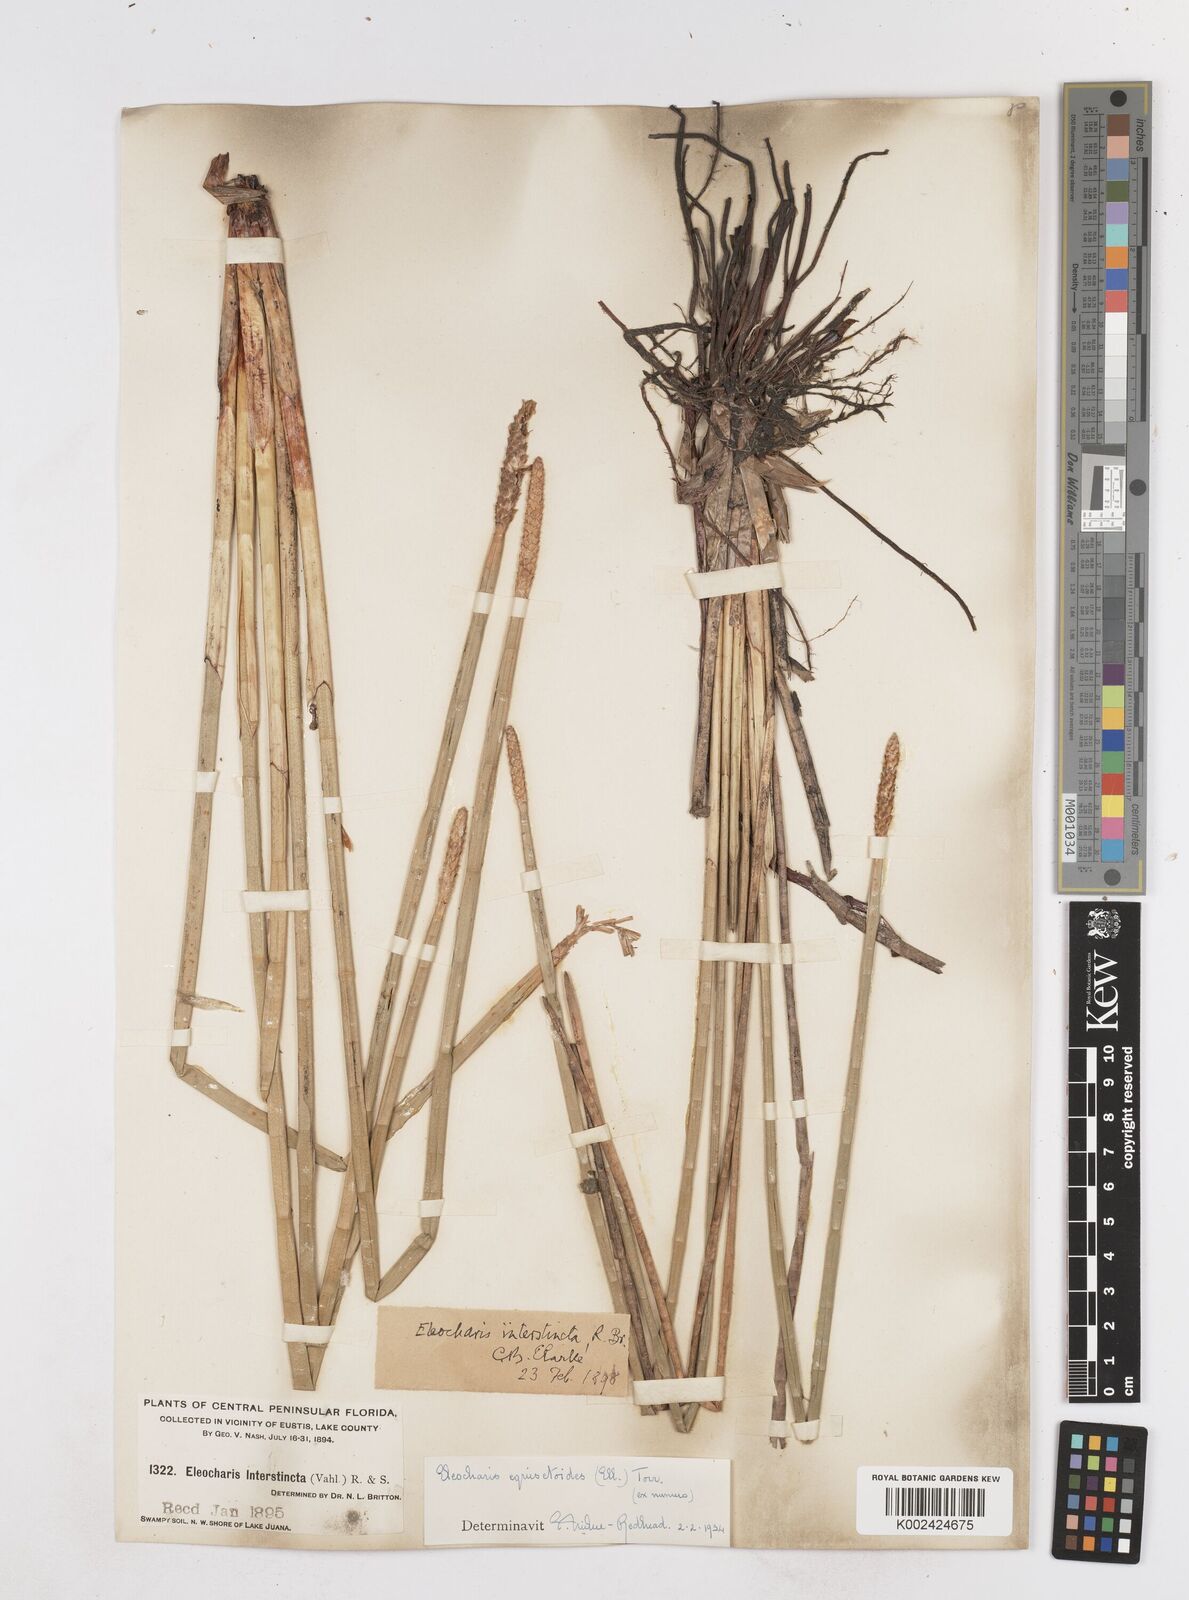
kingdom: Plantae
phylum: Tracheophyta
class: Liliopsida
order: Poales
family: Cyperaceae
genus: Eleocharis
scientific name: Eleocharis equisetoides
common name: Horsetail spike-rush
